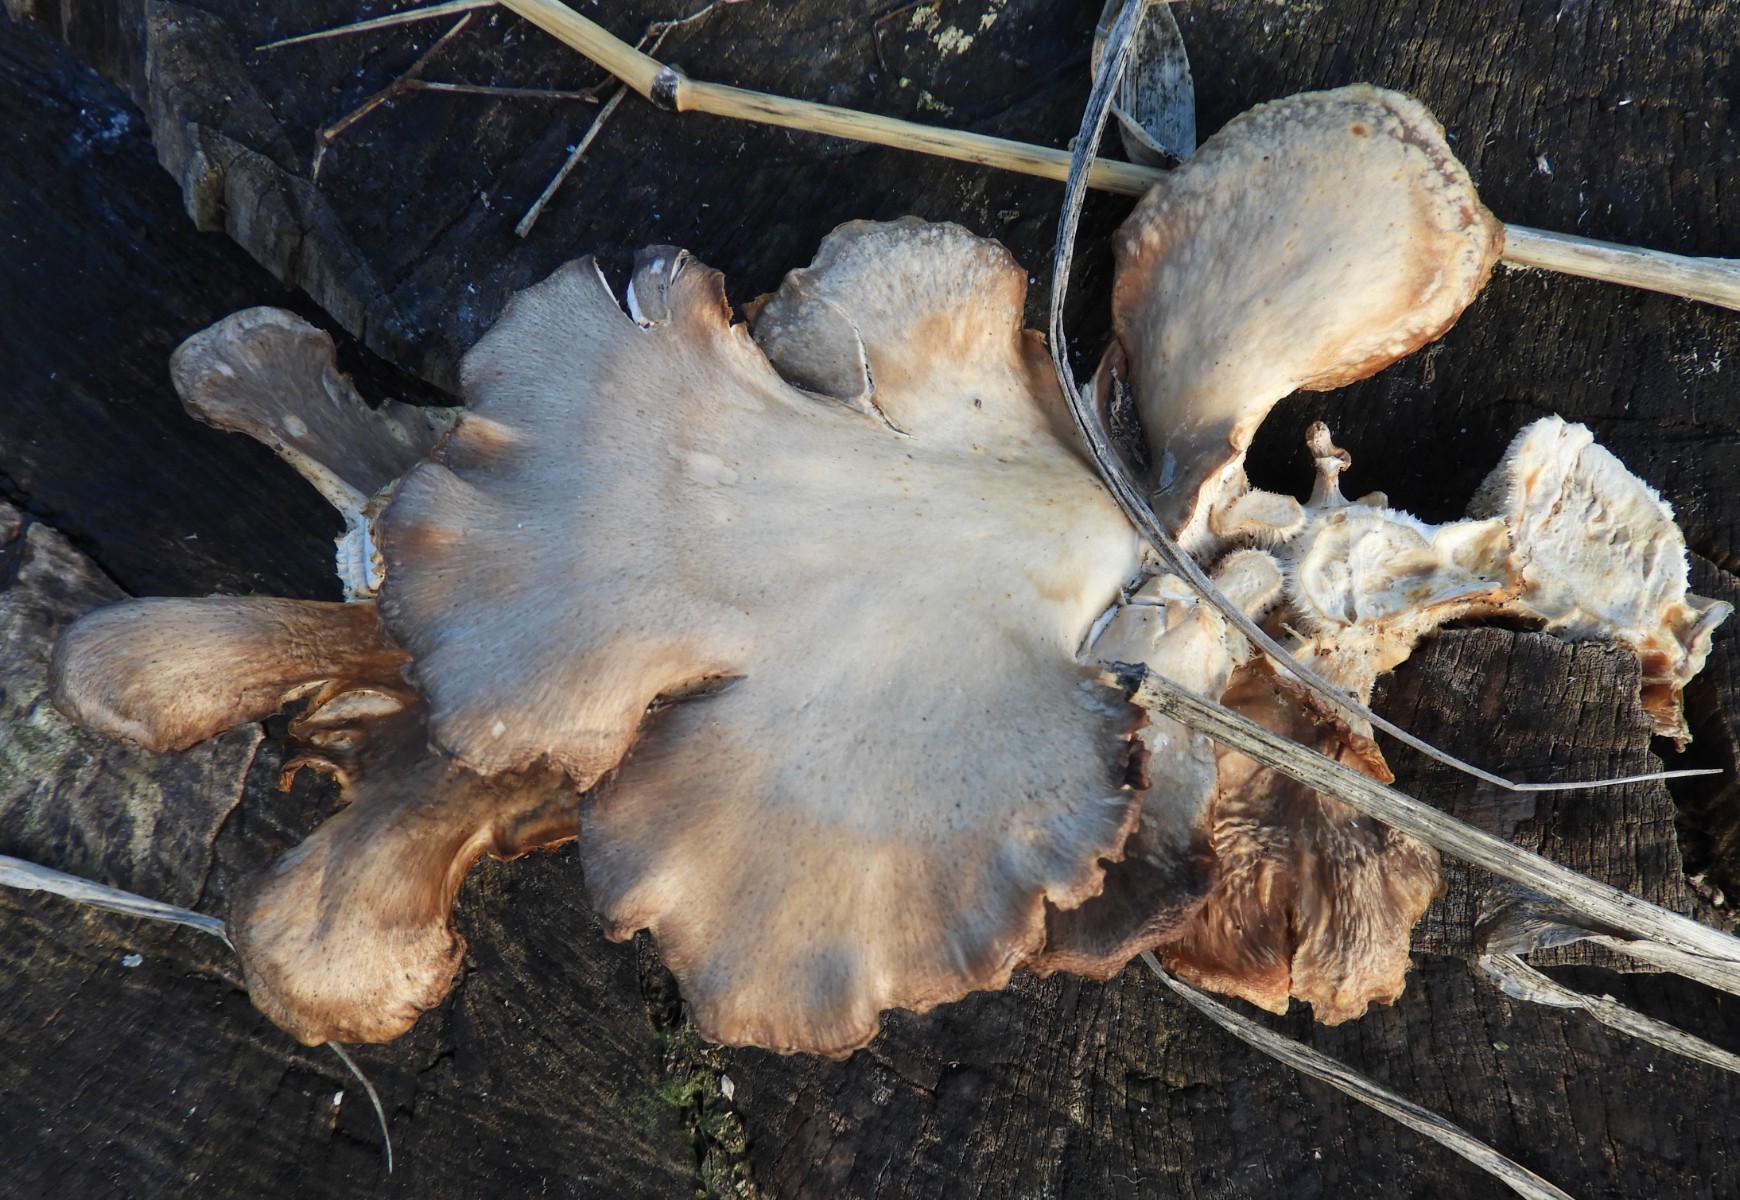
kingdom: Fungi
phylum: Basidiomycota
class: Agaricomycetes
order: Agaricales
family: Pleurotaceae
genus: Pleurotus
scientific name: Pleurotus ostreatus
